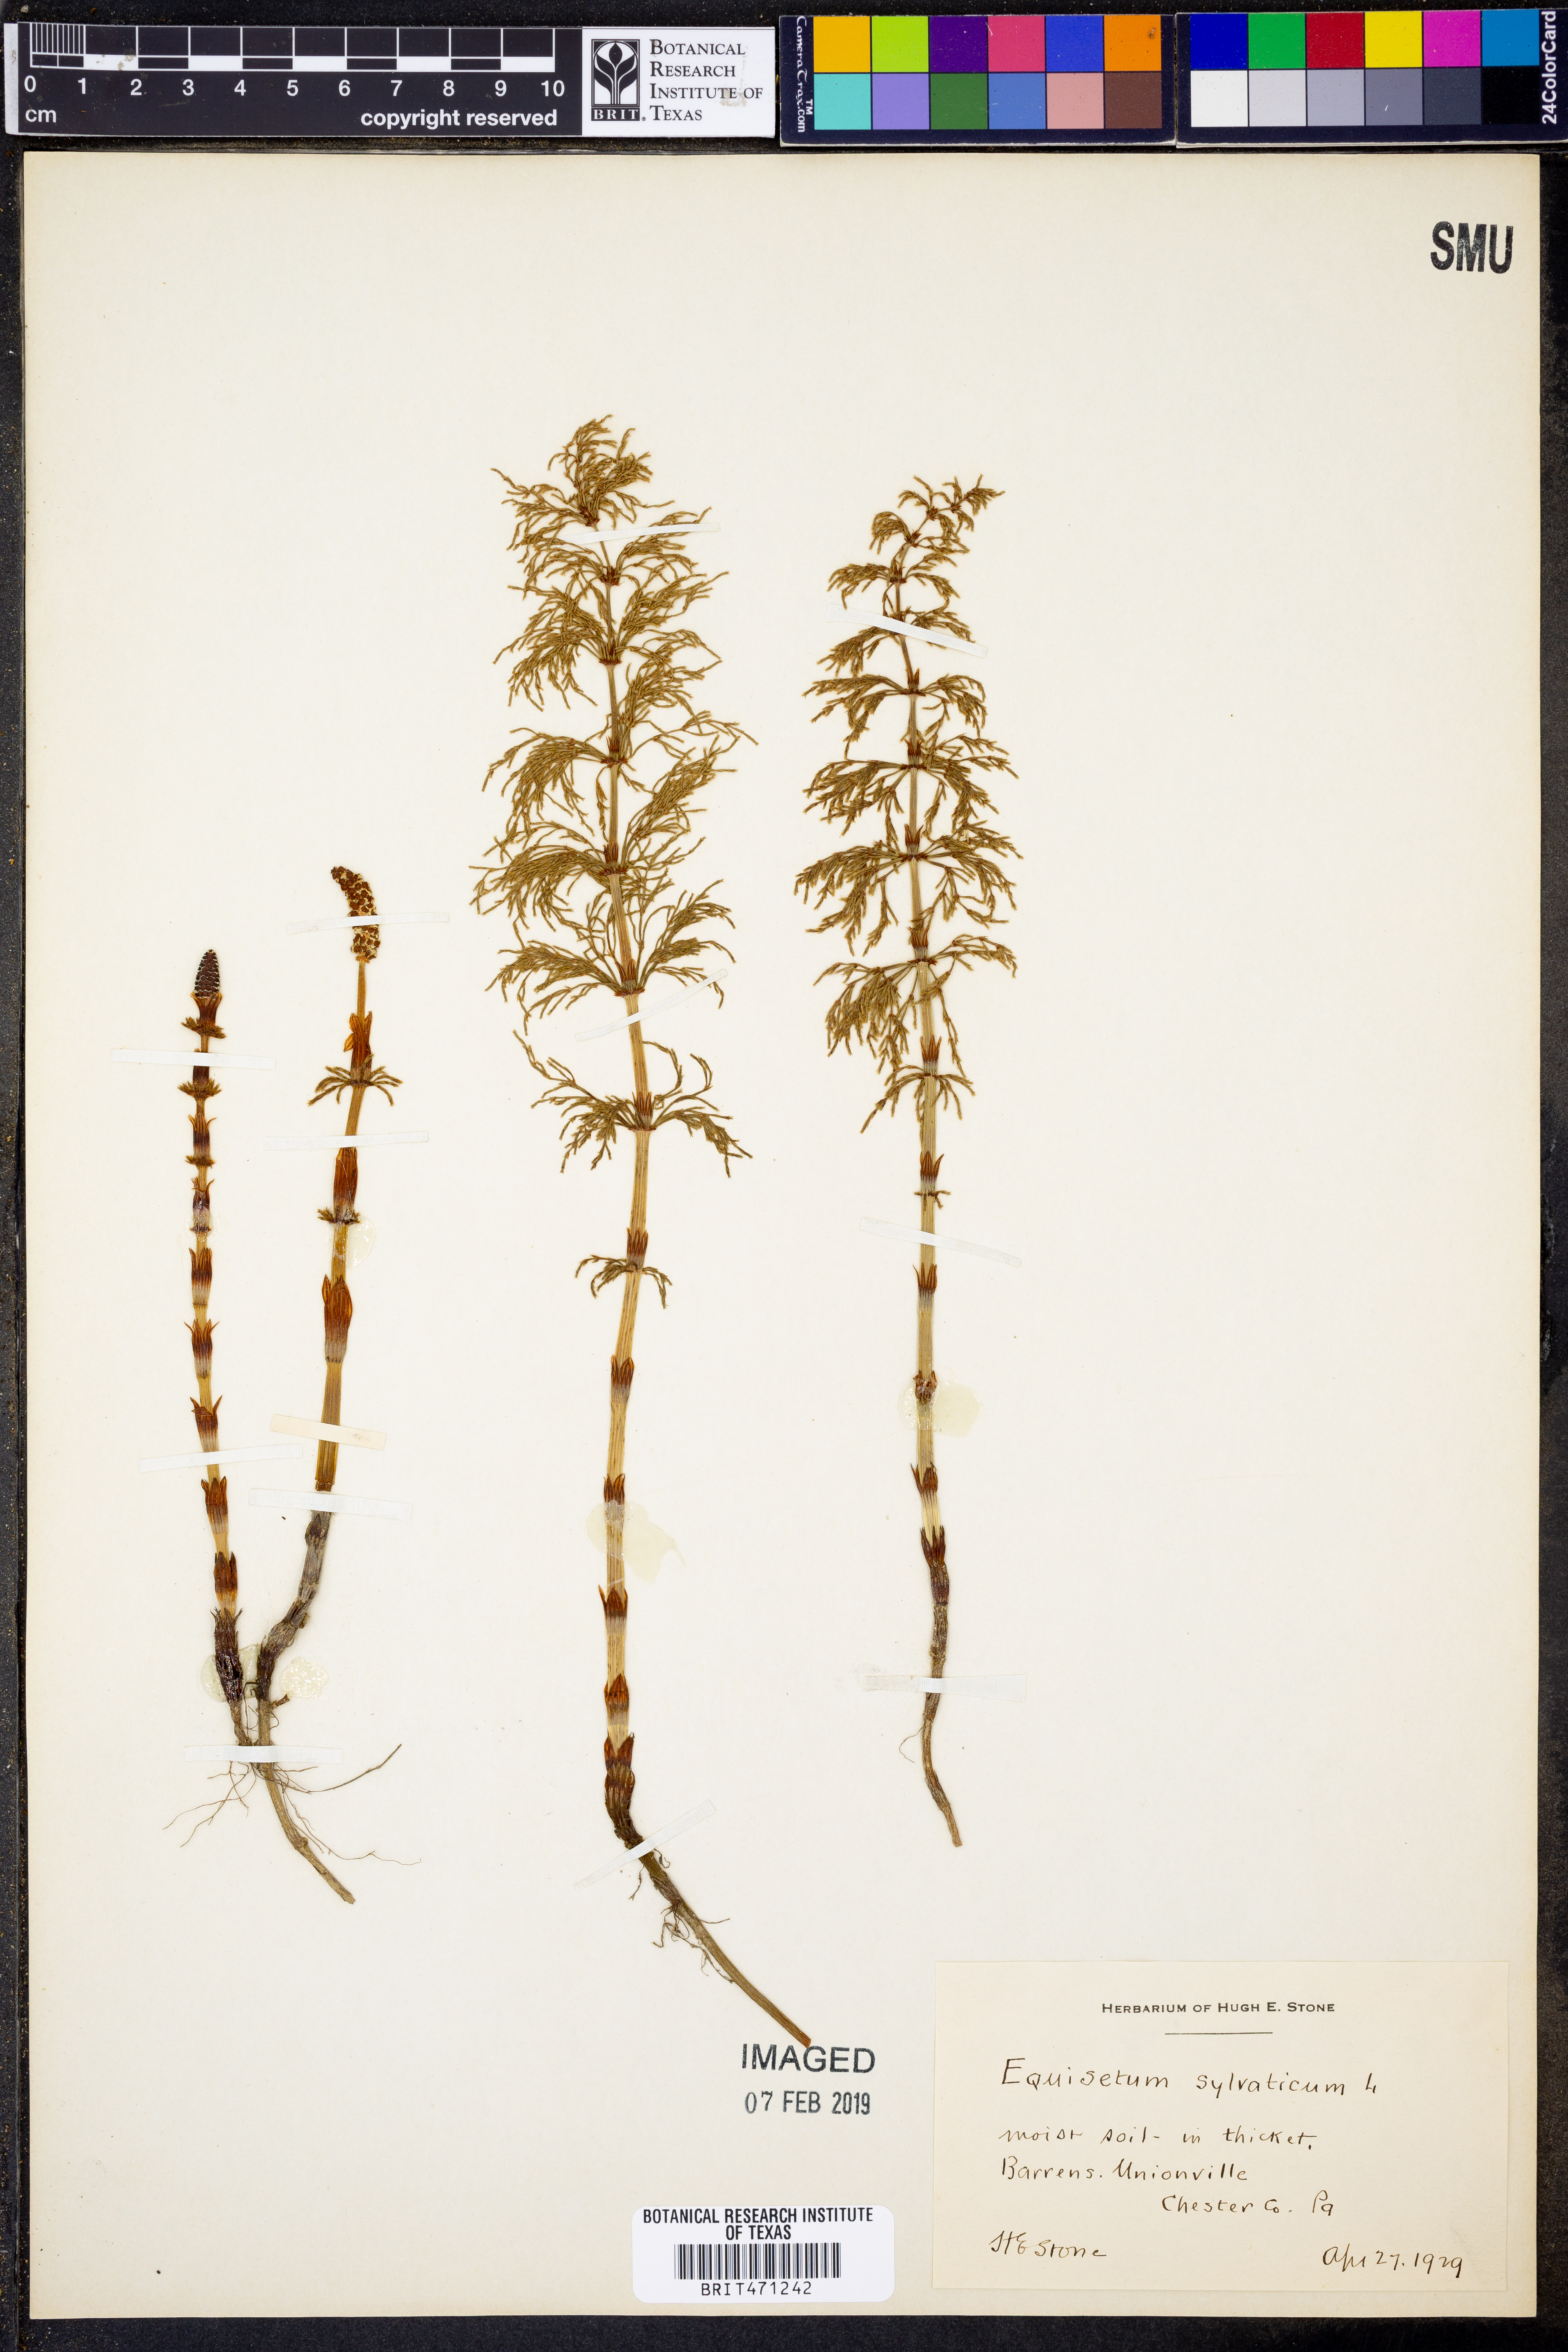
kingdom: Plantae
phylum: Tracheophyta
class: Polypodiopsida
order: Equisetales
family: Equisetaceae
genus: Equisetum
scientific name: Equisetum sylvaticum
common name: Wood horsetail
